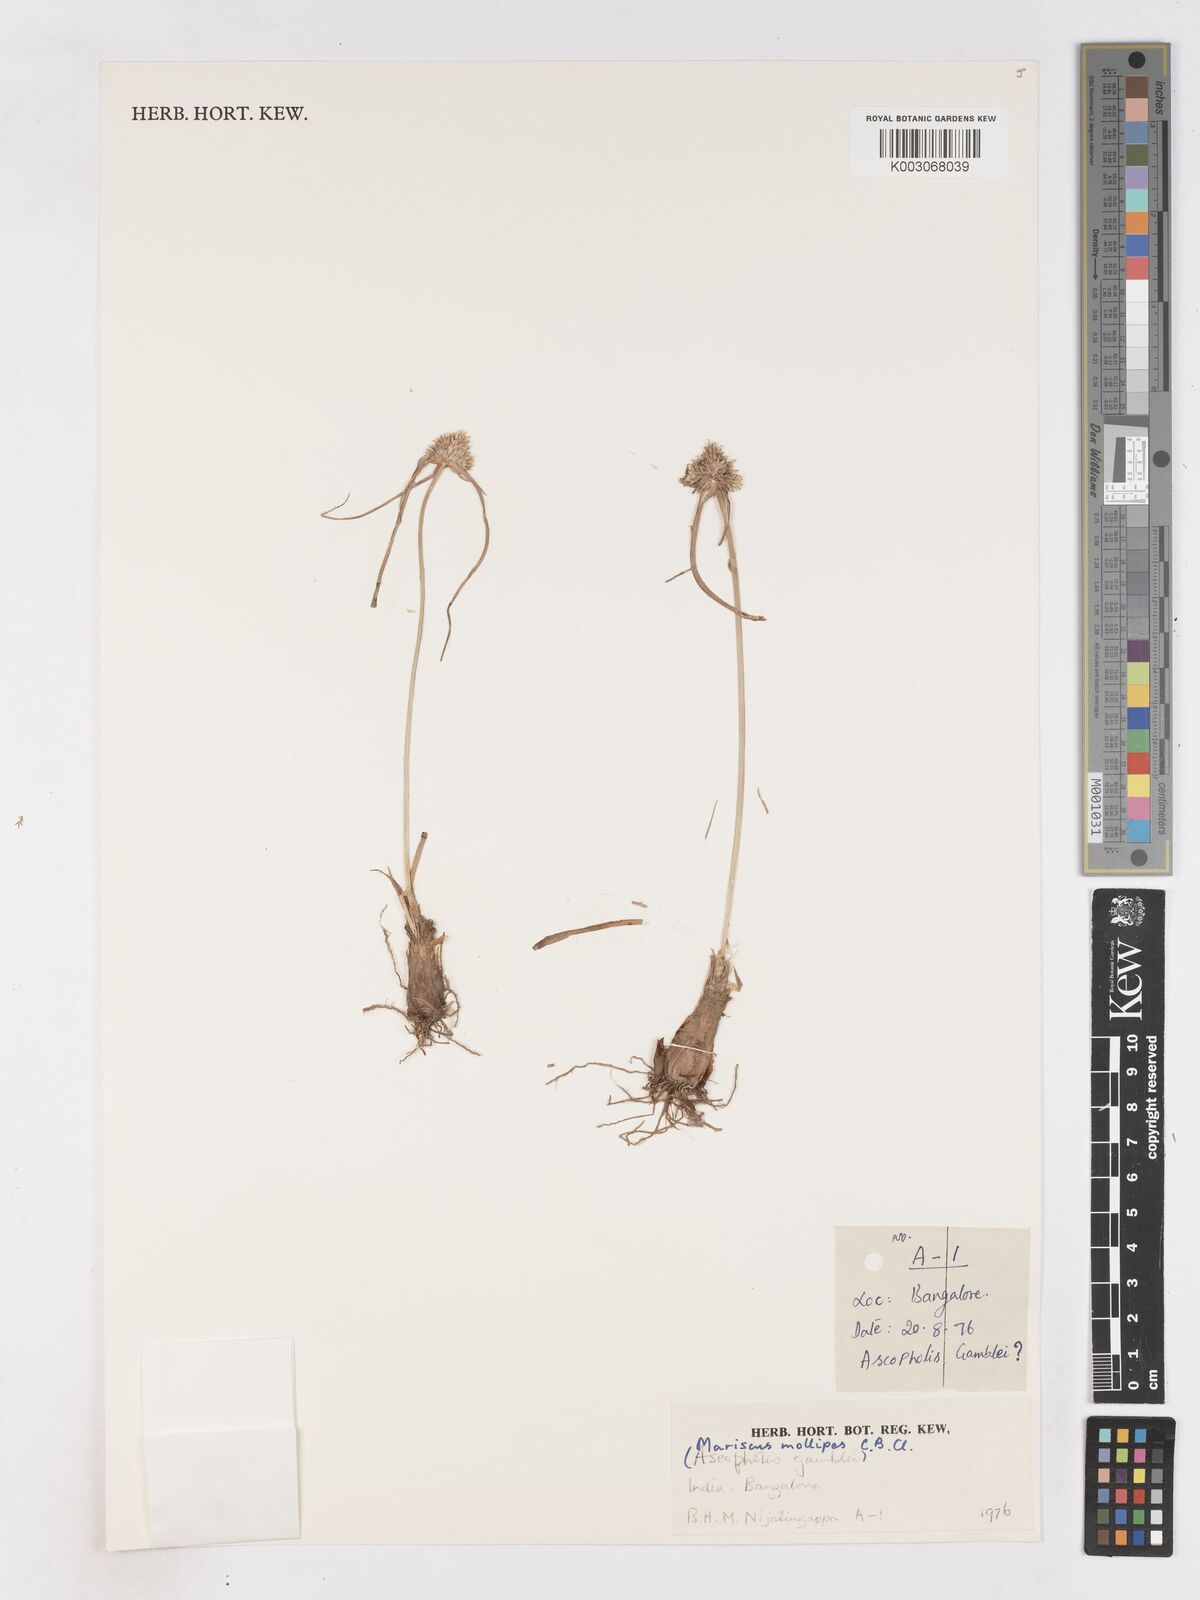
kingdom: Plantae
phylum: Tracheophyta
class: Liliopsida
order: Poales
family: Cyperaceae
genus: Cyperus
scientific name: Cyperus mollipes
